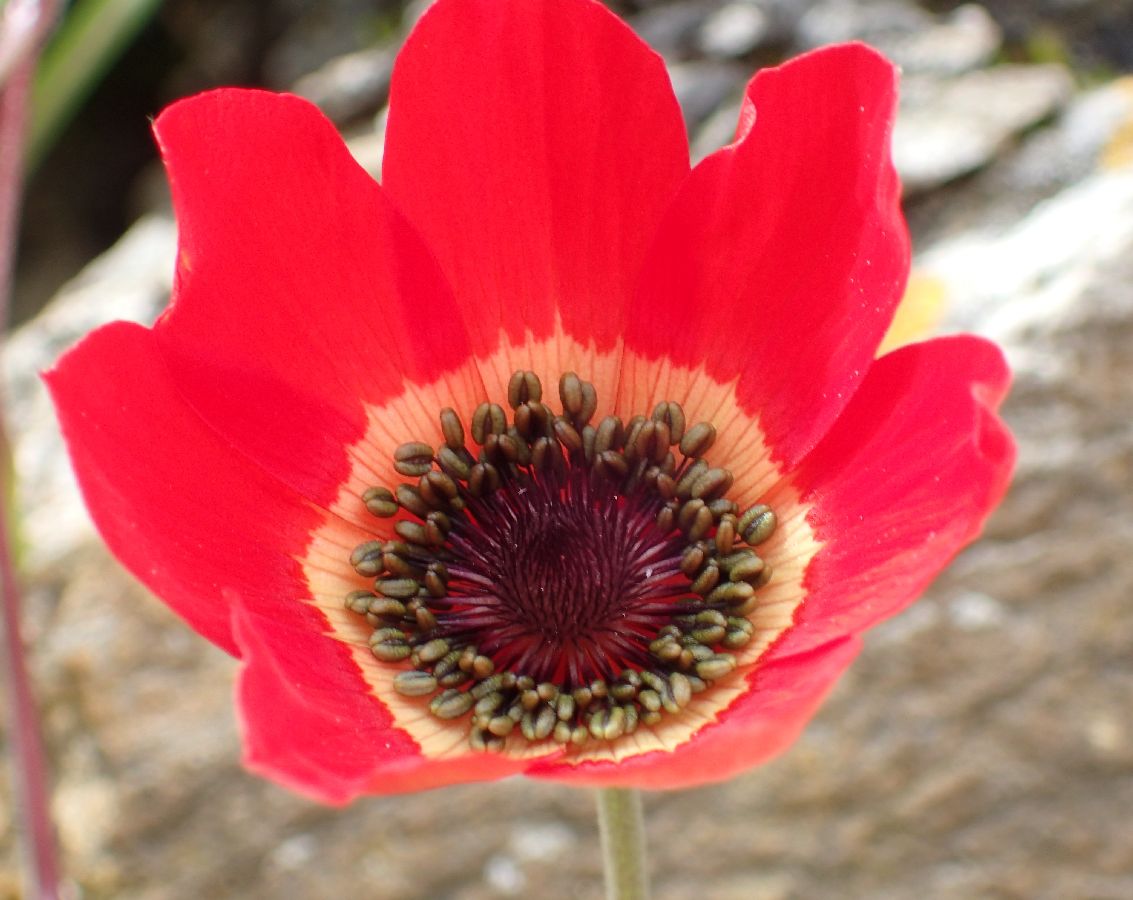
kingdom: Plantae
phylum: Tracheophyta
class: Magnoliopsida
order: Ranunculales
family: Ranunculaceae
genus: Anemone
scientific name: Anemone pavonina
